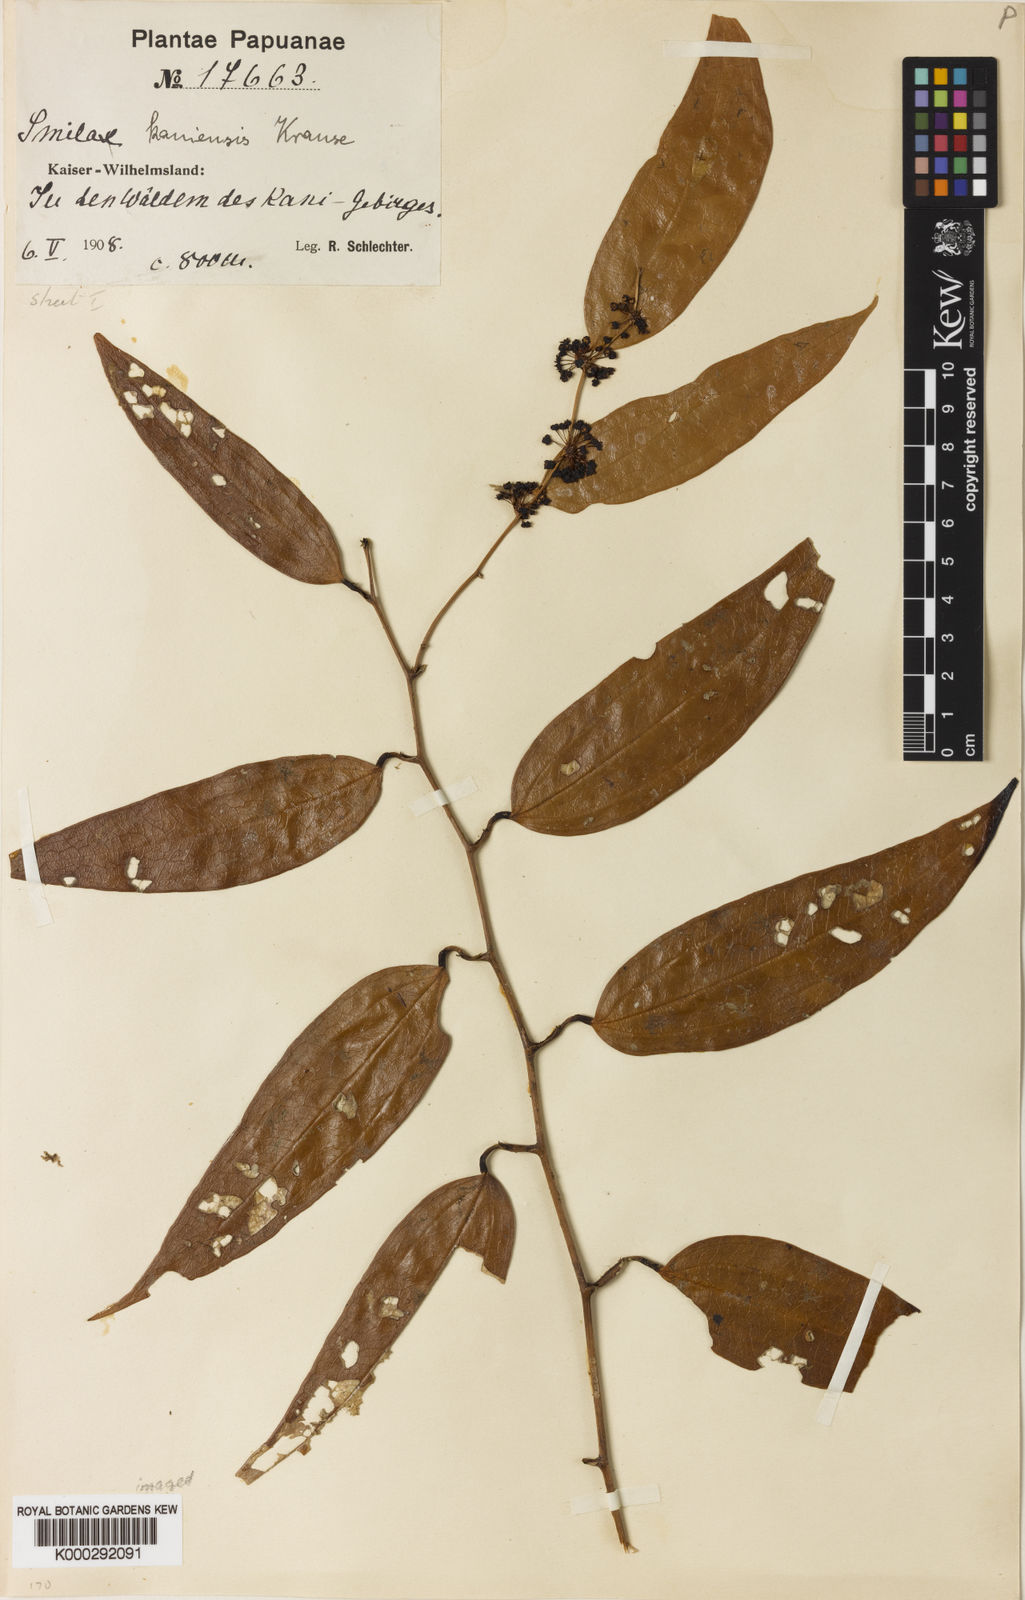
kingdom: Plantae
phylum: Tracheophyta
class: Liliopsida
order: Liliales
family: Smilacaceae
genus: Smilax
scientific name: Smilax kaniensis
